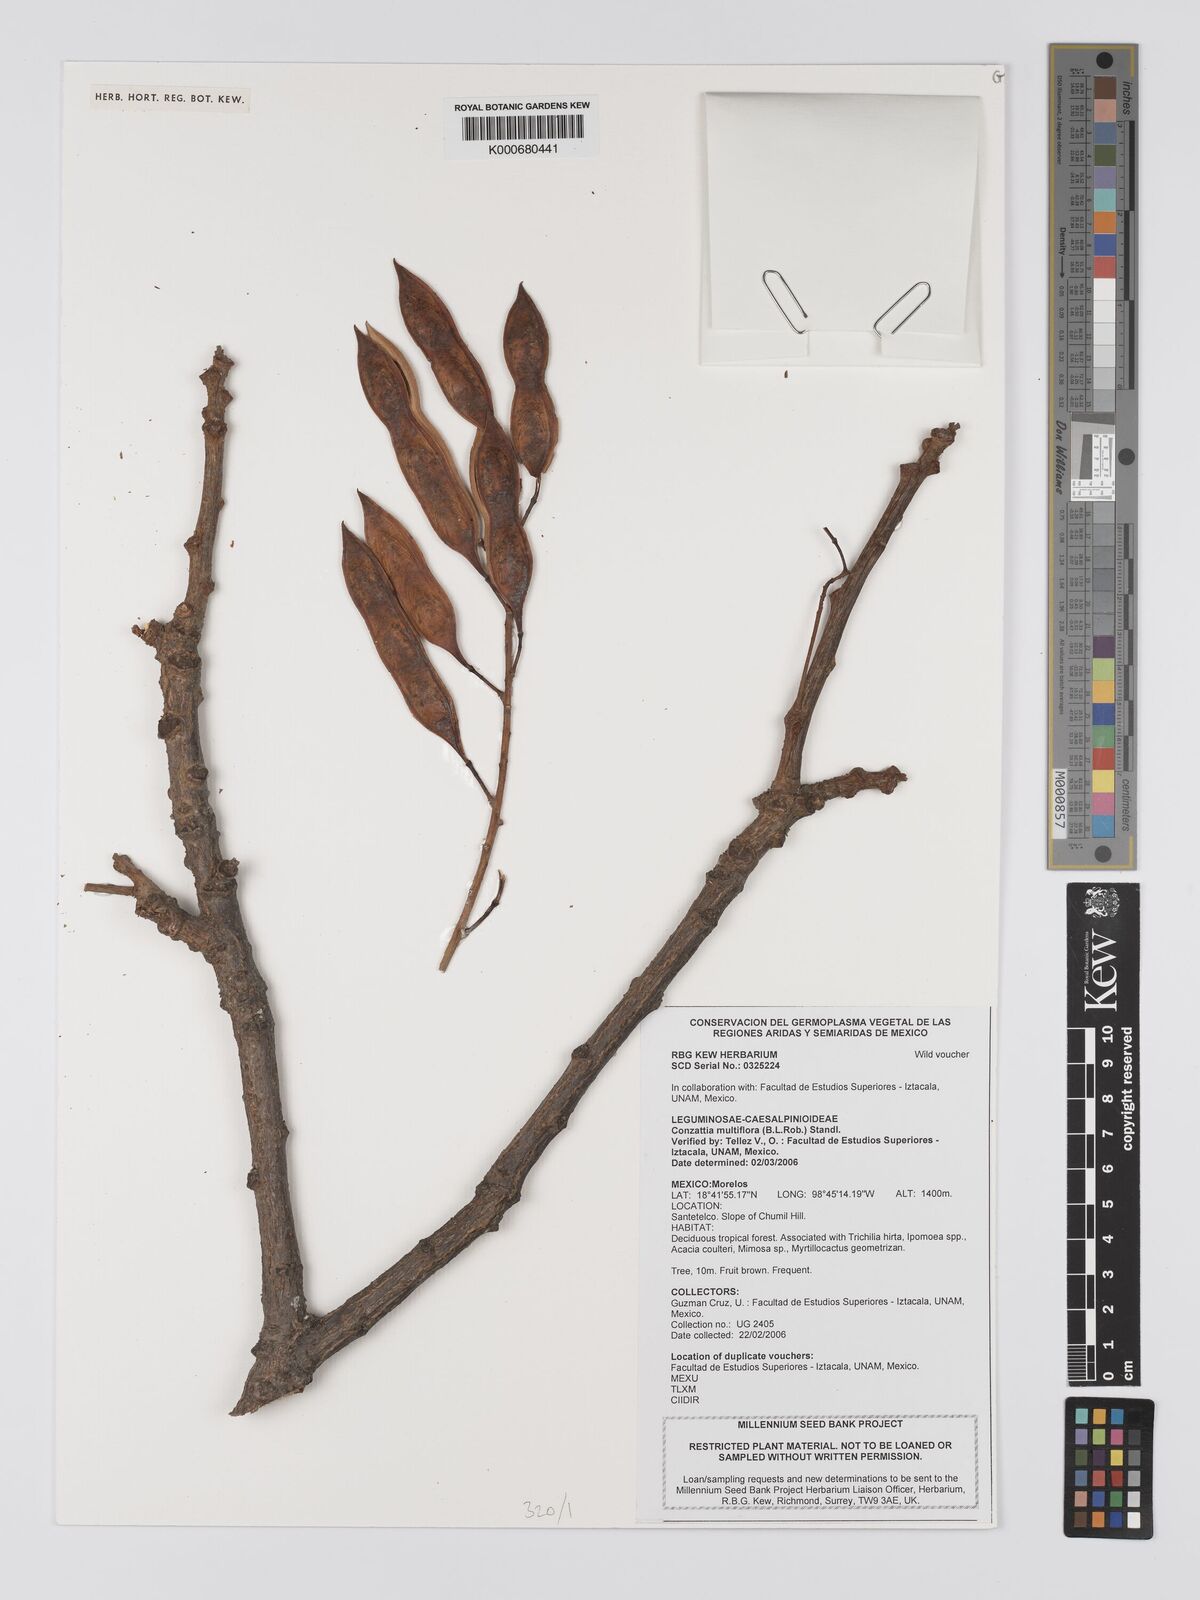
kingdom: Plantae
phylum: Tracheophyta
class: Magnoliopsida
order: Fabales
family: Fabaceae
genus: Conzattia
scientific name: Conzattia multiflora
